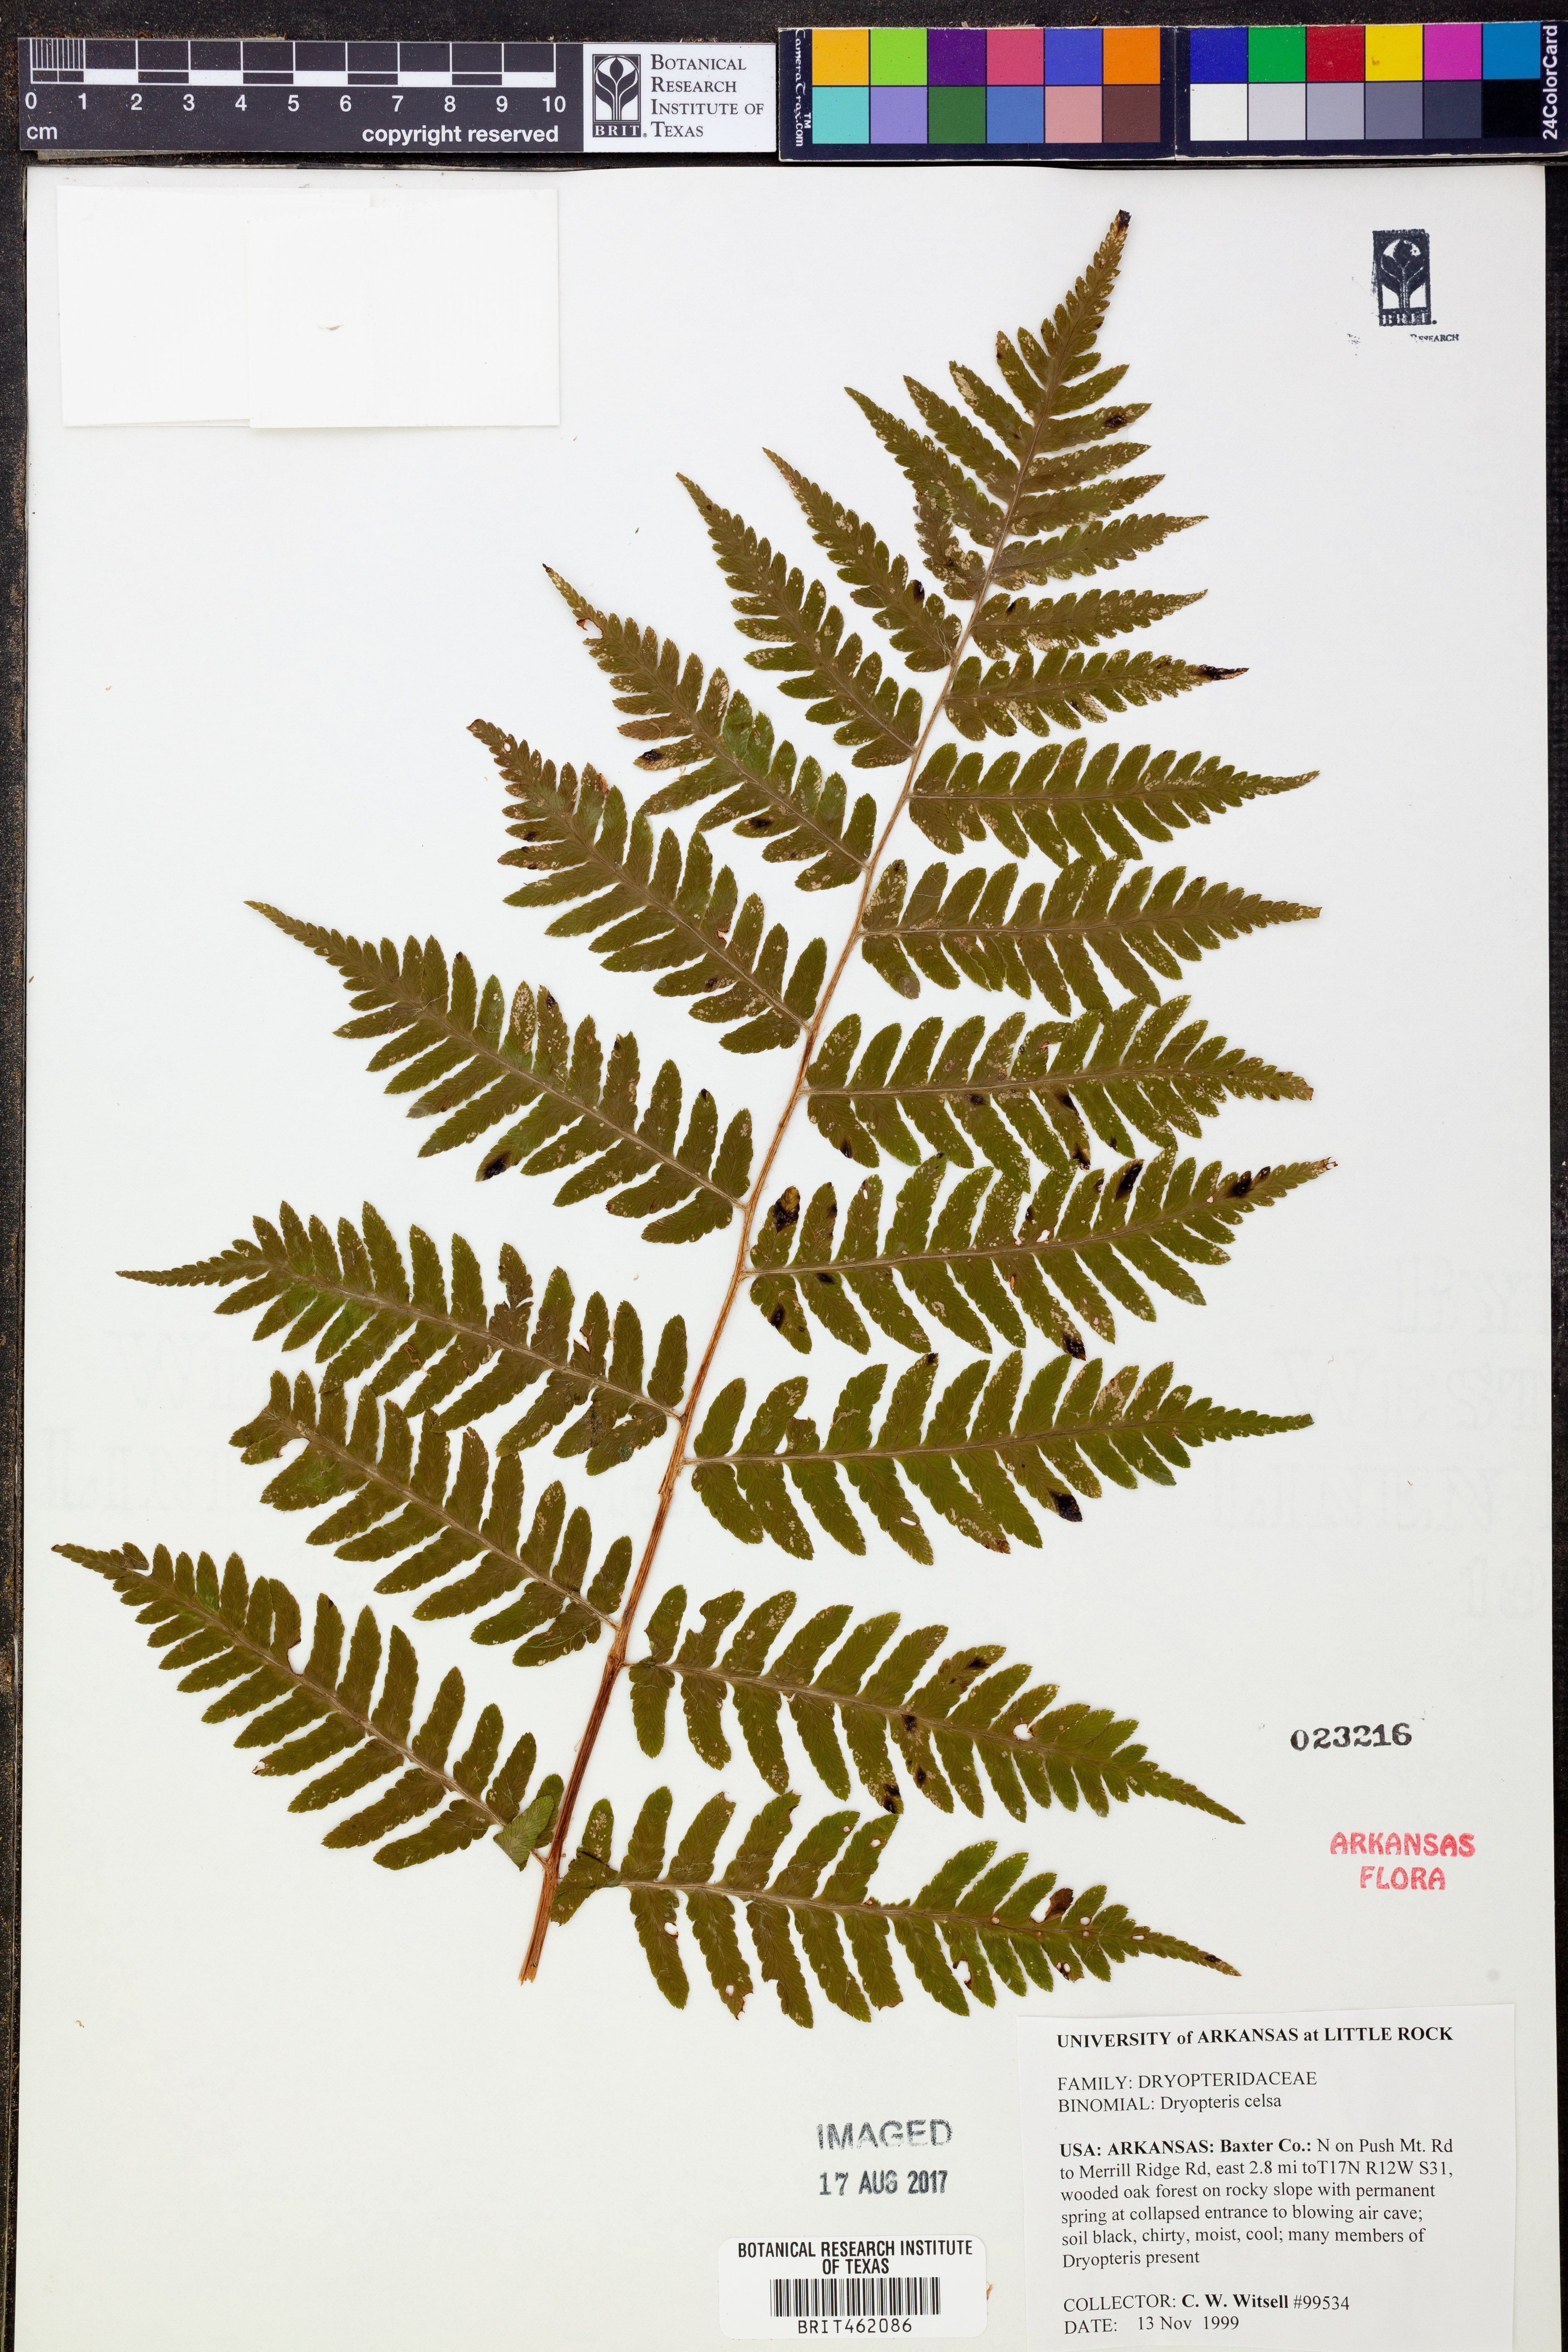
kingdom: Plantae
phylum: Tracheophyta
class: Polypodiopsida
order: Polypodiales
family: Dryopteridaceae
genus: Dryopteris
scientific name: Dryopteris celsa
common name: Log fern
